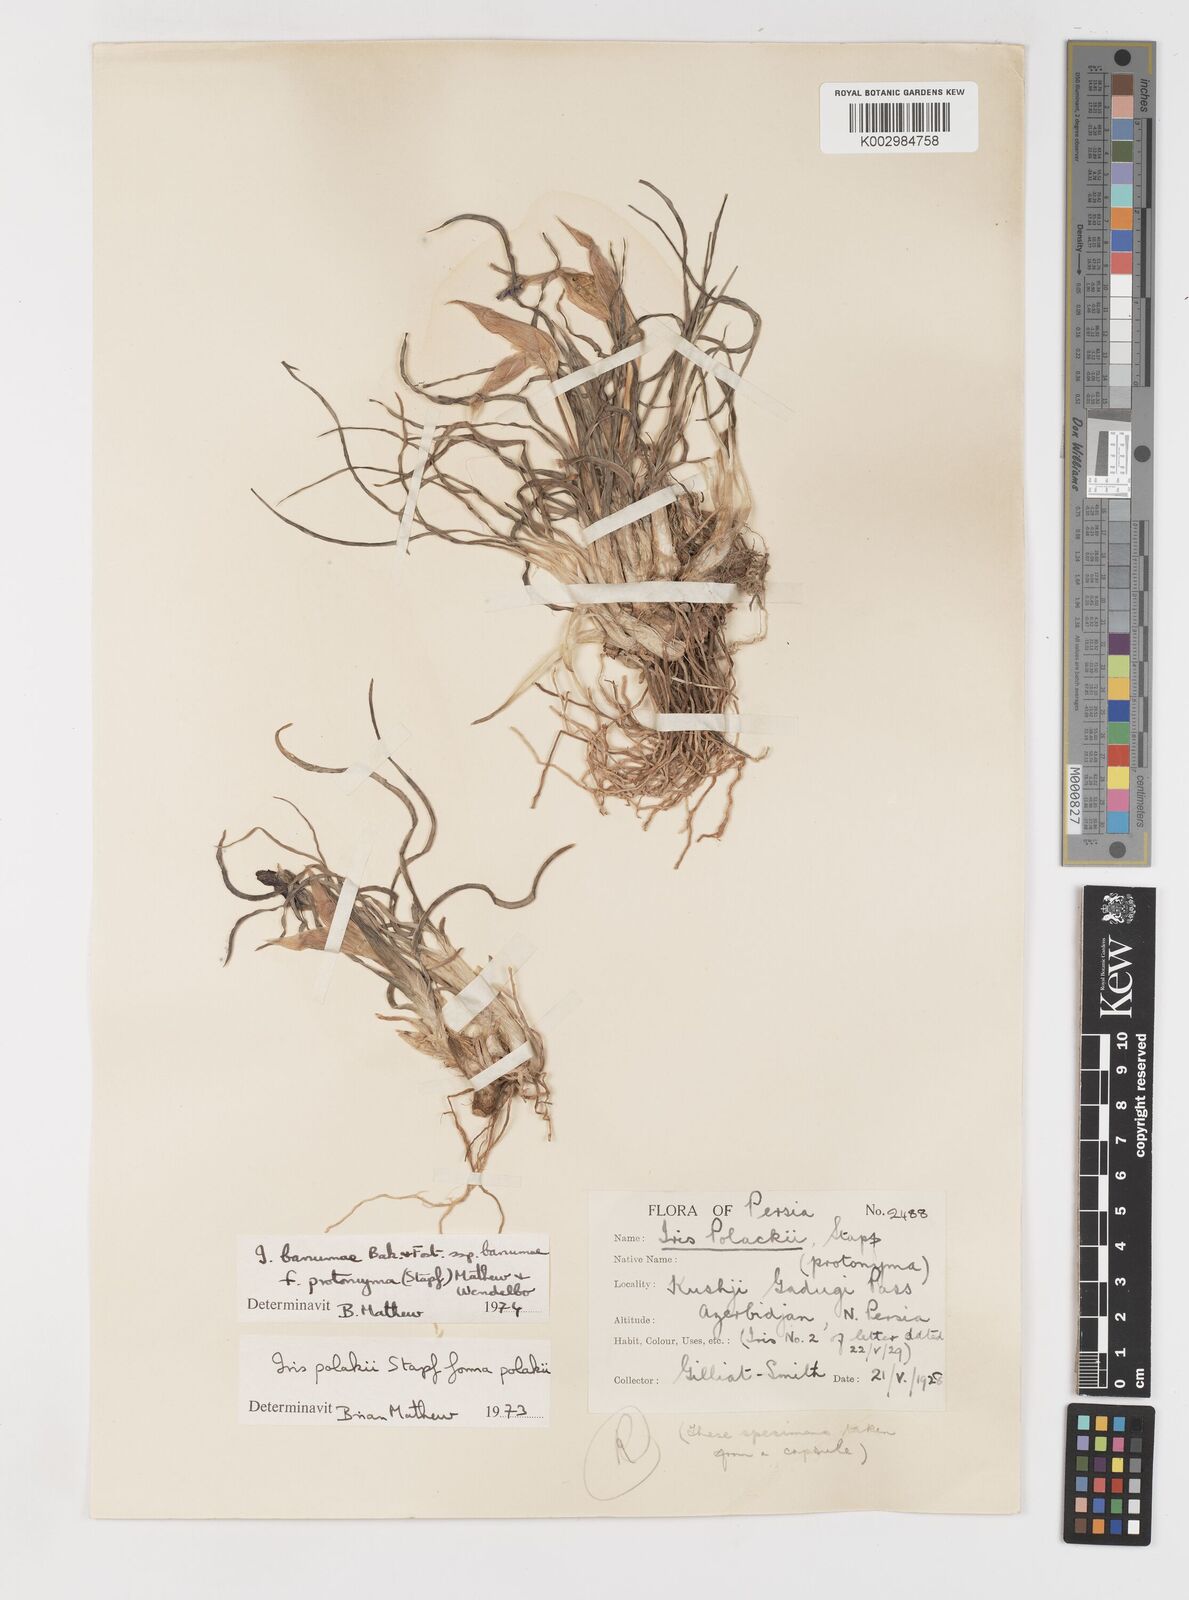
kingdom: Plantae
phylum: Tracheophyta
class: Liliopsida
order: Asparagales
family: Iridaceae
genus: Iris
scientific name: Iris polakii
